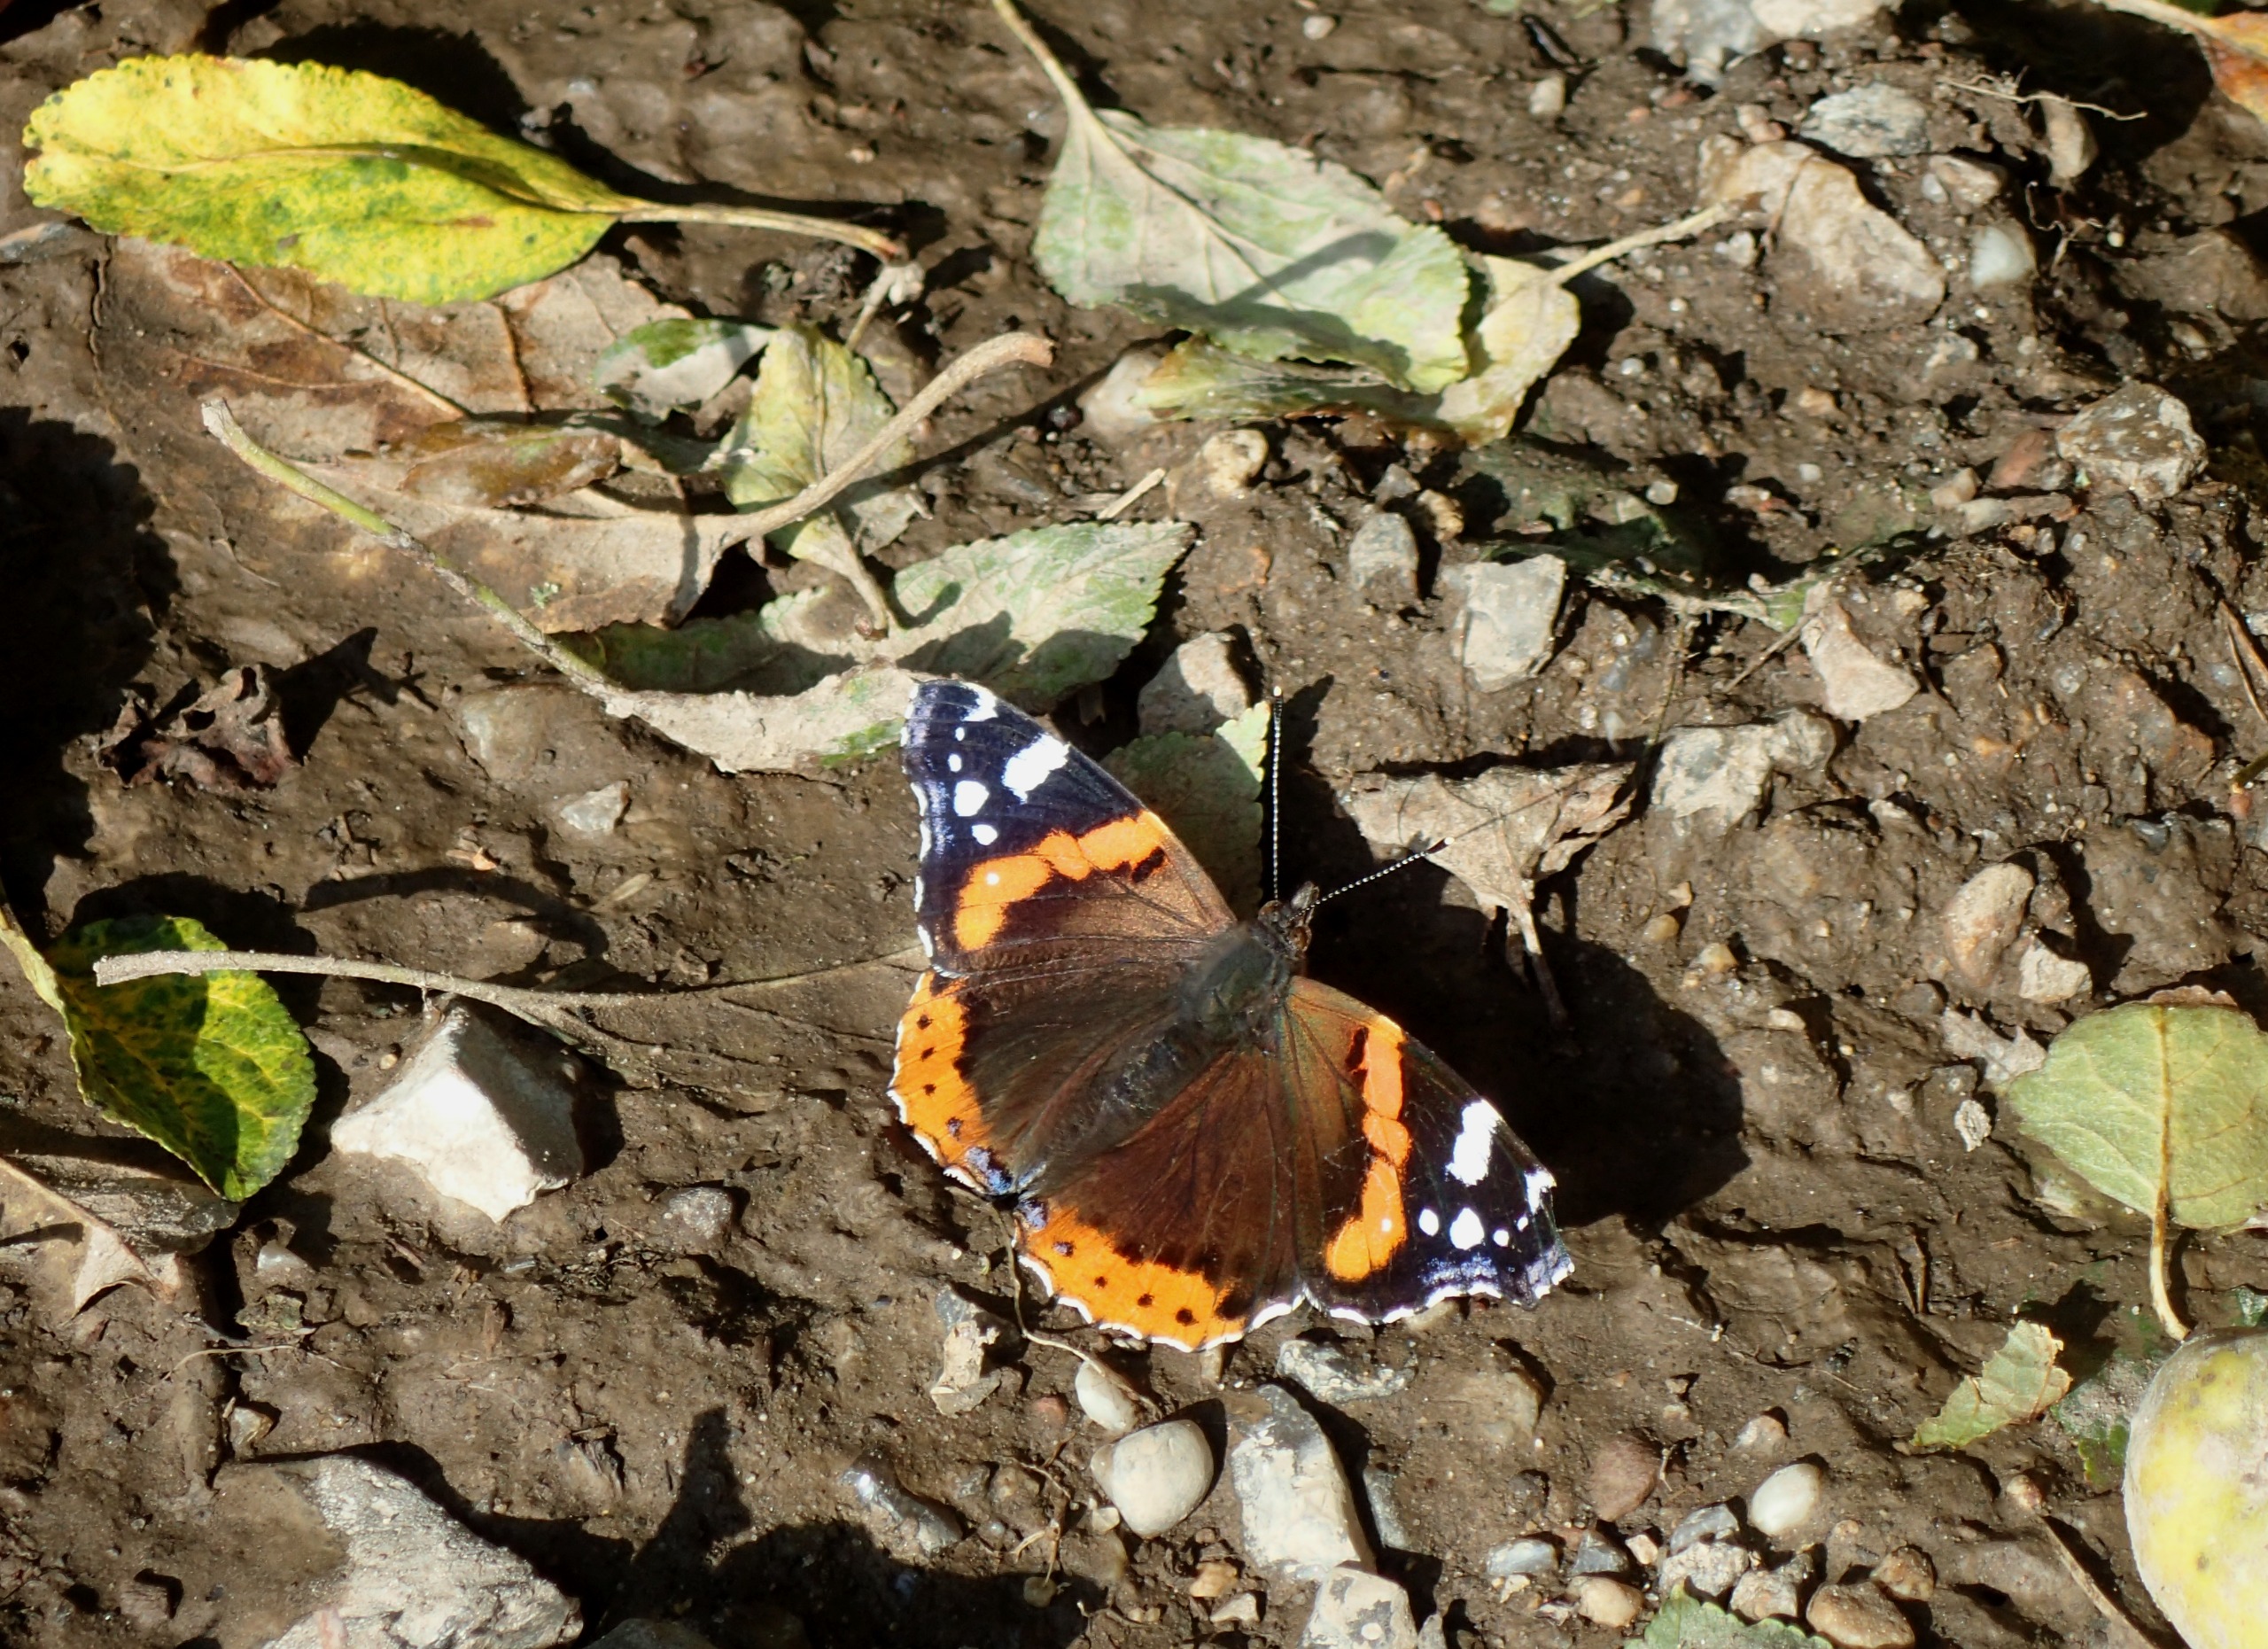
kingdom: Animalia
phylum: Arthropoda
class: Insecta
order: Lepidoptera
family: Nymphalidae
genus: Vanessa
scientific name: Vanessa atalanta
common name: Admiral
